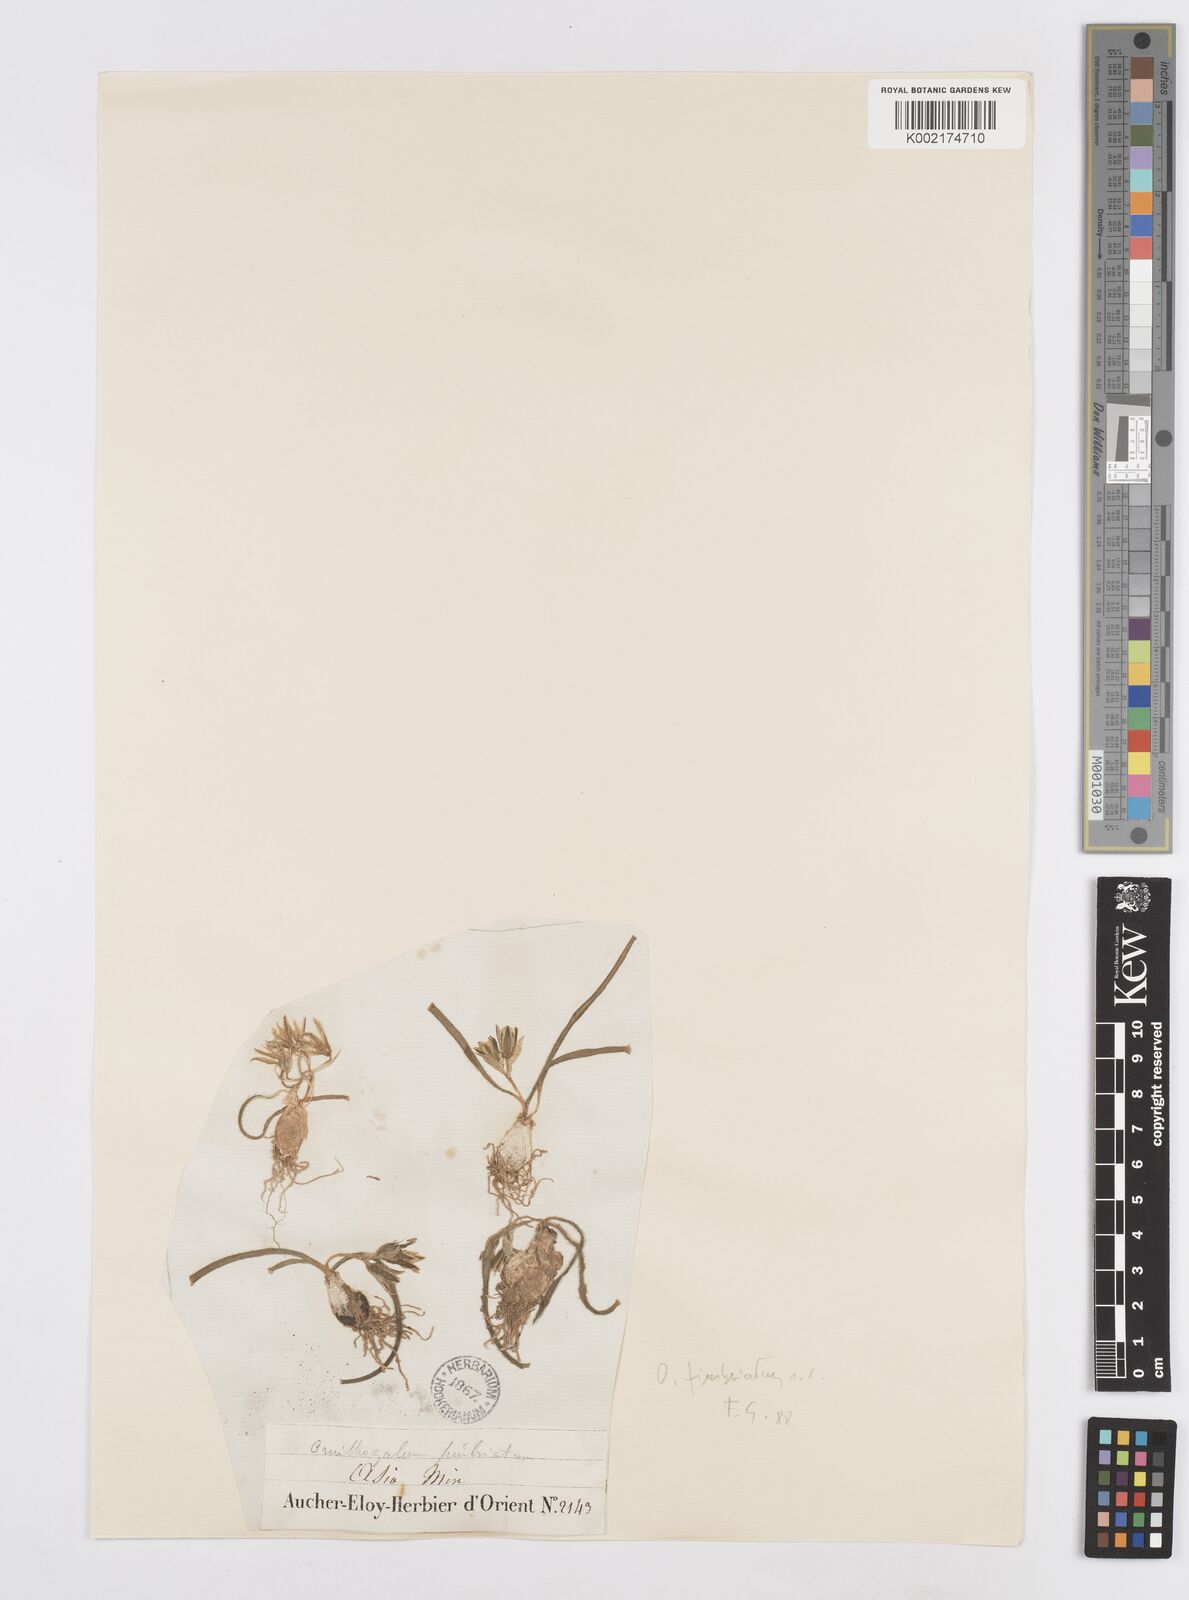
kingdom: Plantae
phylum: Tracheophyta
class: Liliopsida
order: Asparagales
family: Asparagaceae
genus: Ornithogalum
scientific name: Ornithogalum fimbriatum
